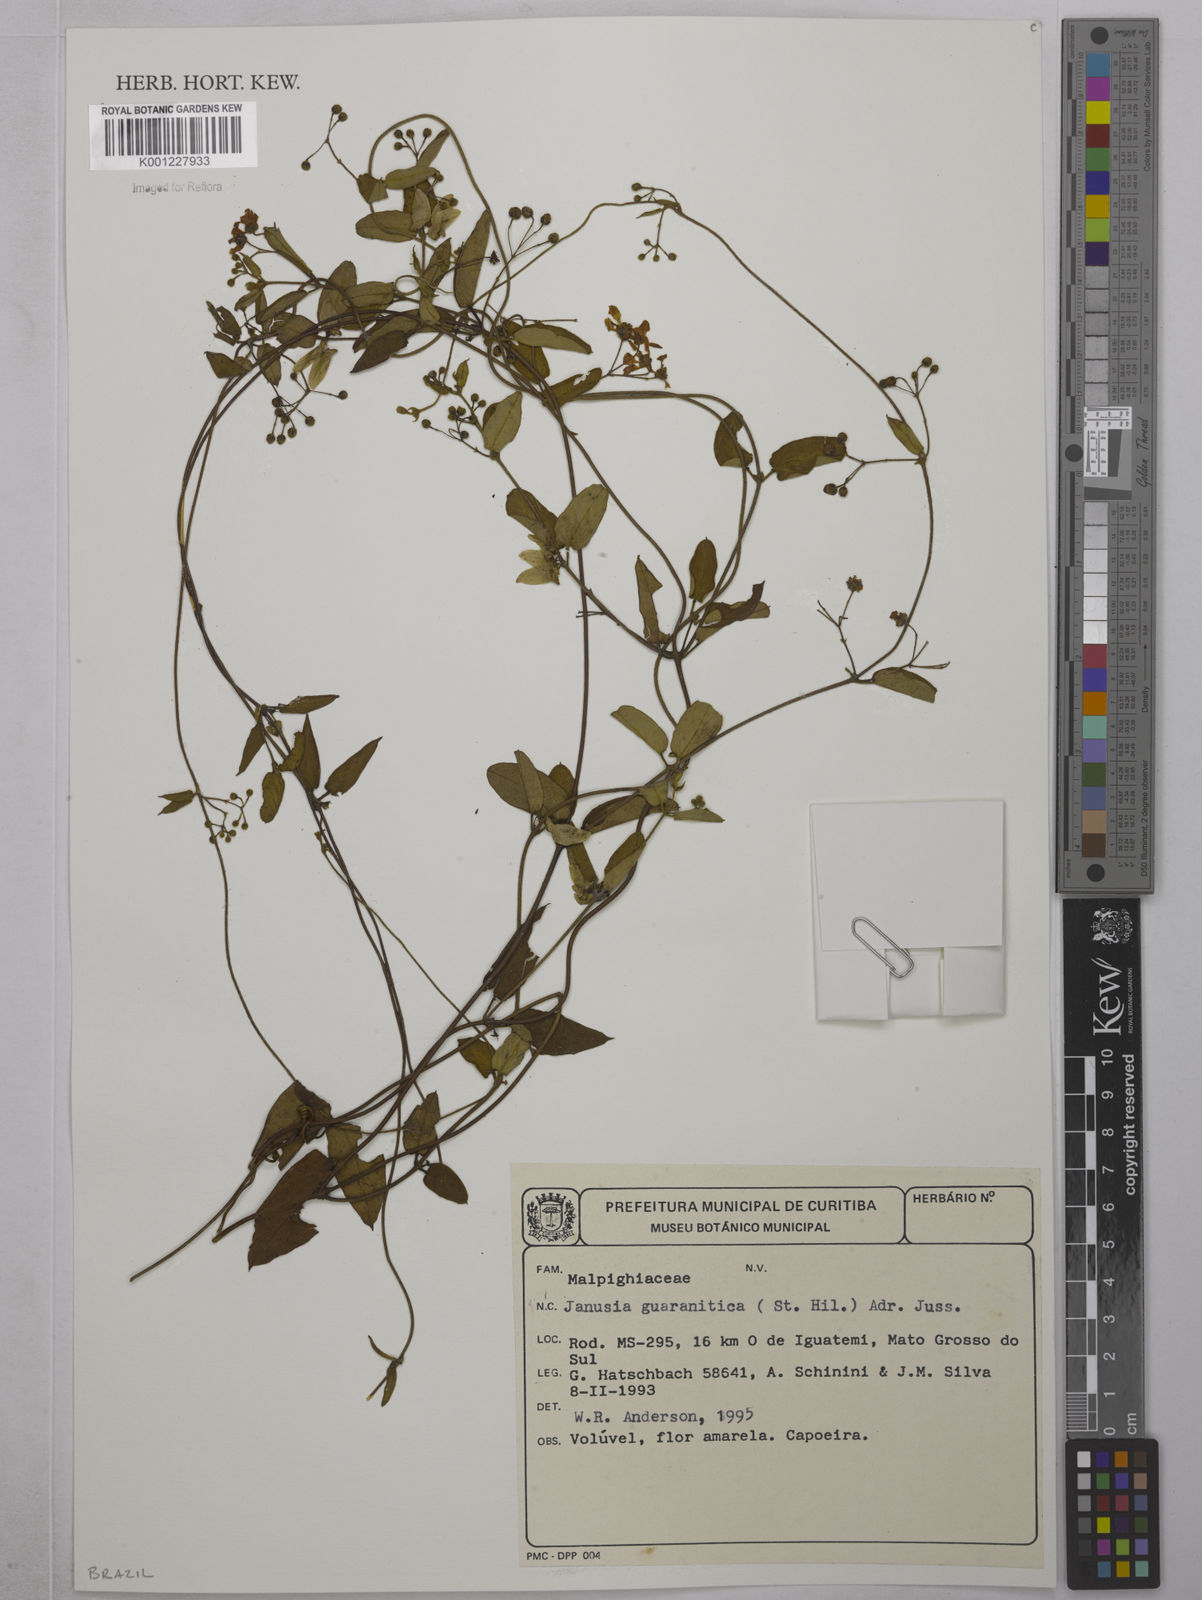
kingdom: Plantae
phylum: Tracheophyta
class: Magnoliopsida
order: Malpighiales
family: Malpighiaceae
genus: Janusia
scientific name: Janusia guaranitica
